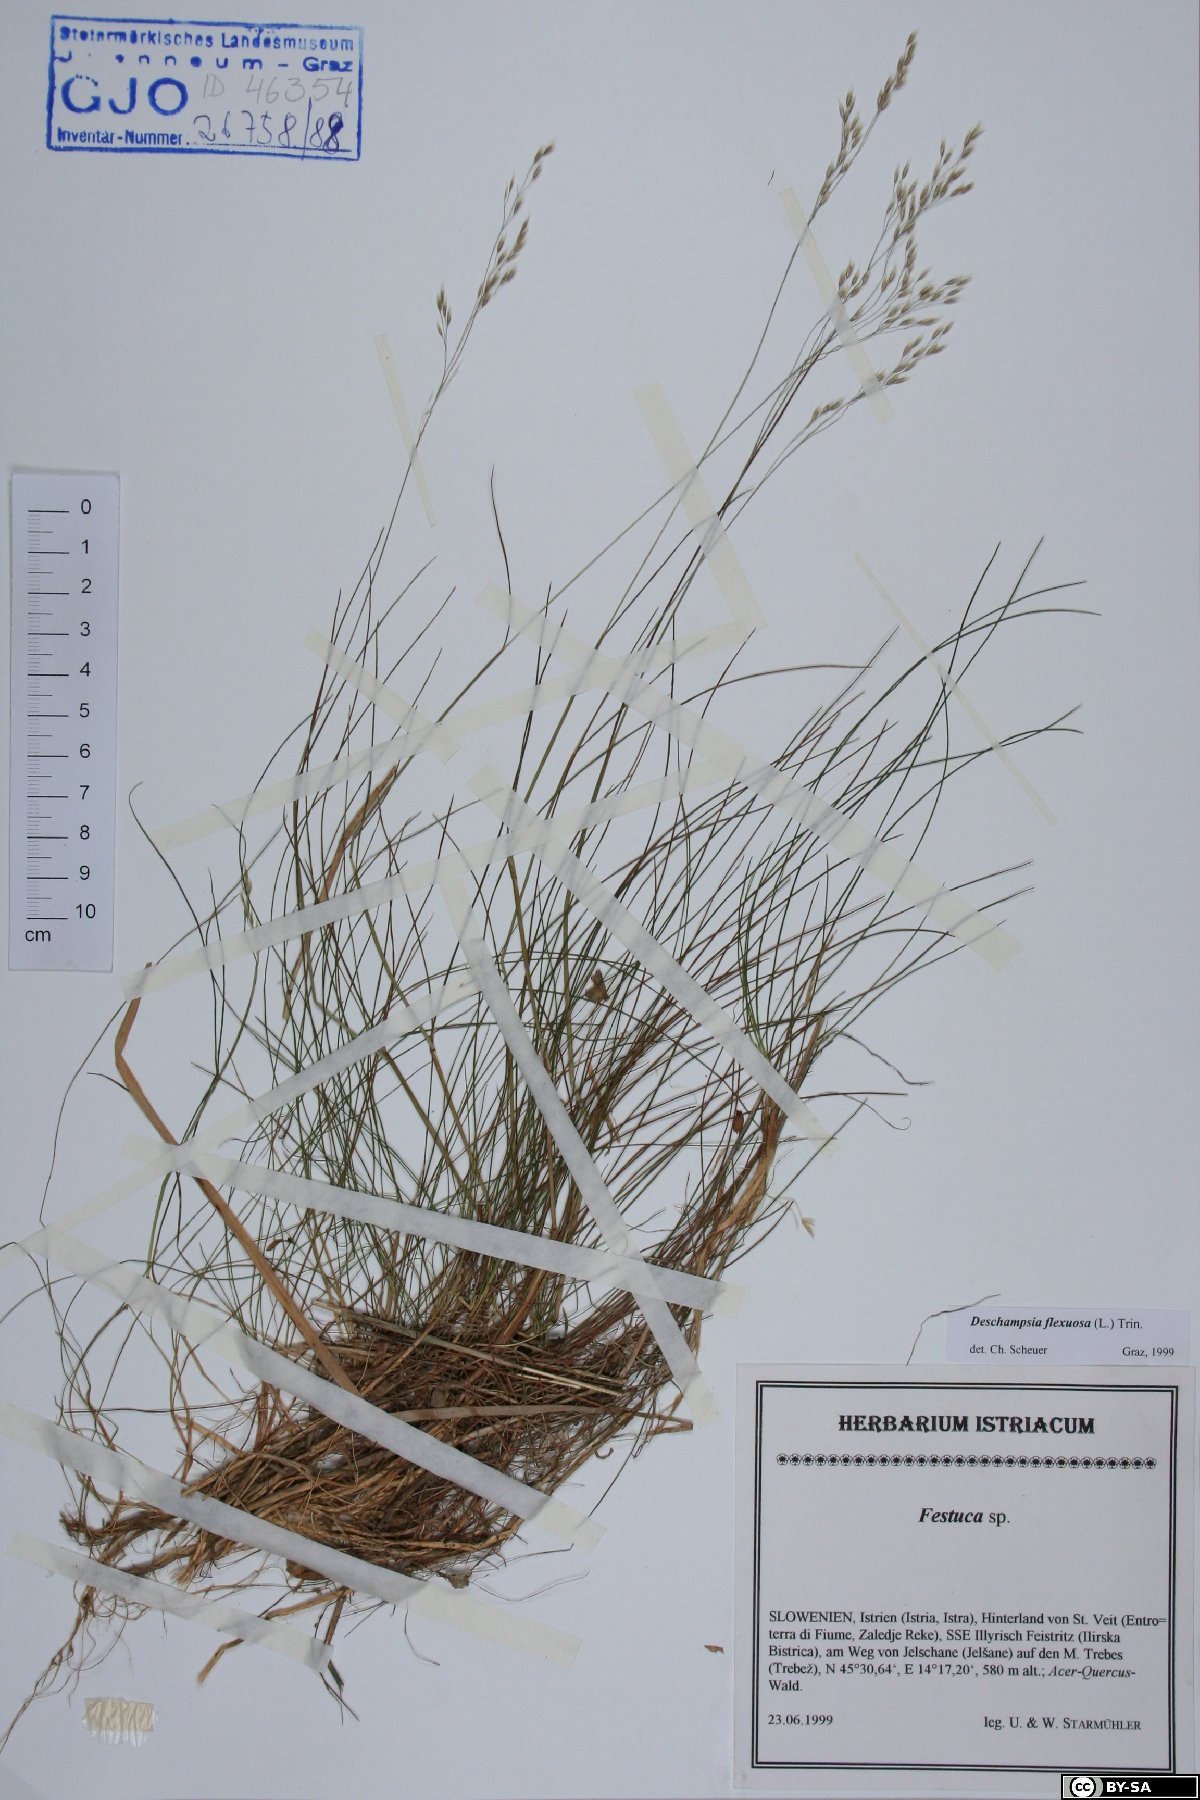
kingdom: Plantae
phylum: Tracheophyta
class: Liliopsida
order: Poales
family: Poaceae
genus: Avenella
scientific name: Avenella flexuosa
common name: Wavy hairgrass
